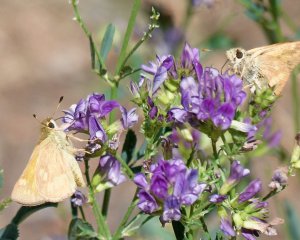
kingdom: Animalia
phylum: Arthropoda
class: Insecta
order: Lepidoptera
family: Hesperiidae
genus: Ochlodes
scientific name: Ochlodes sylvanoides
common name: Woodland Skipper
